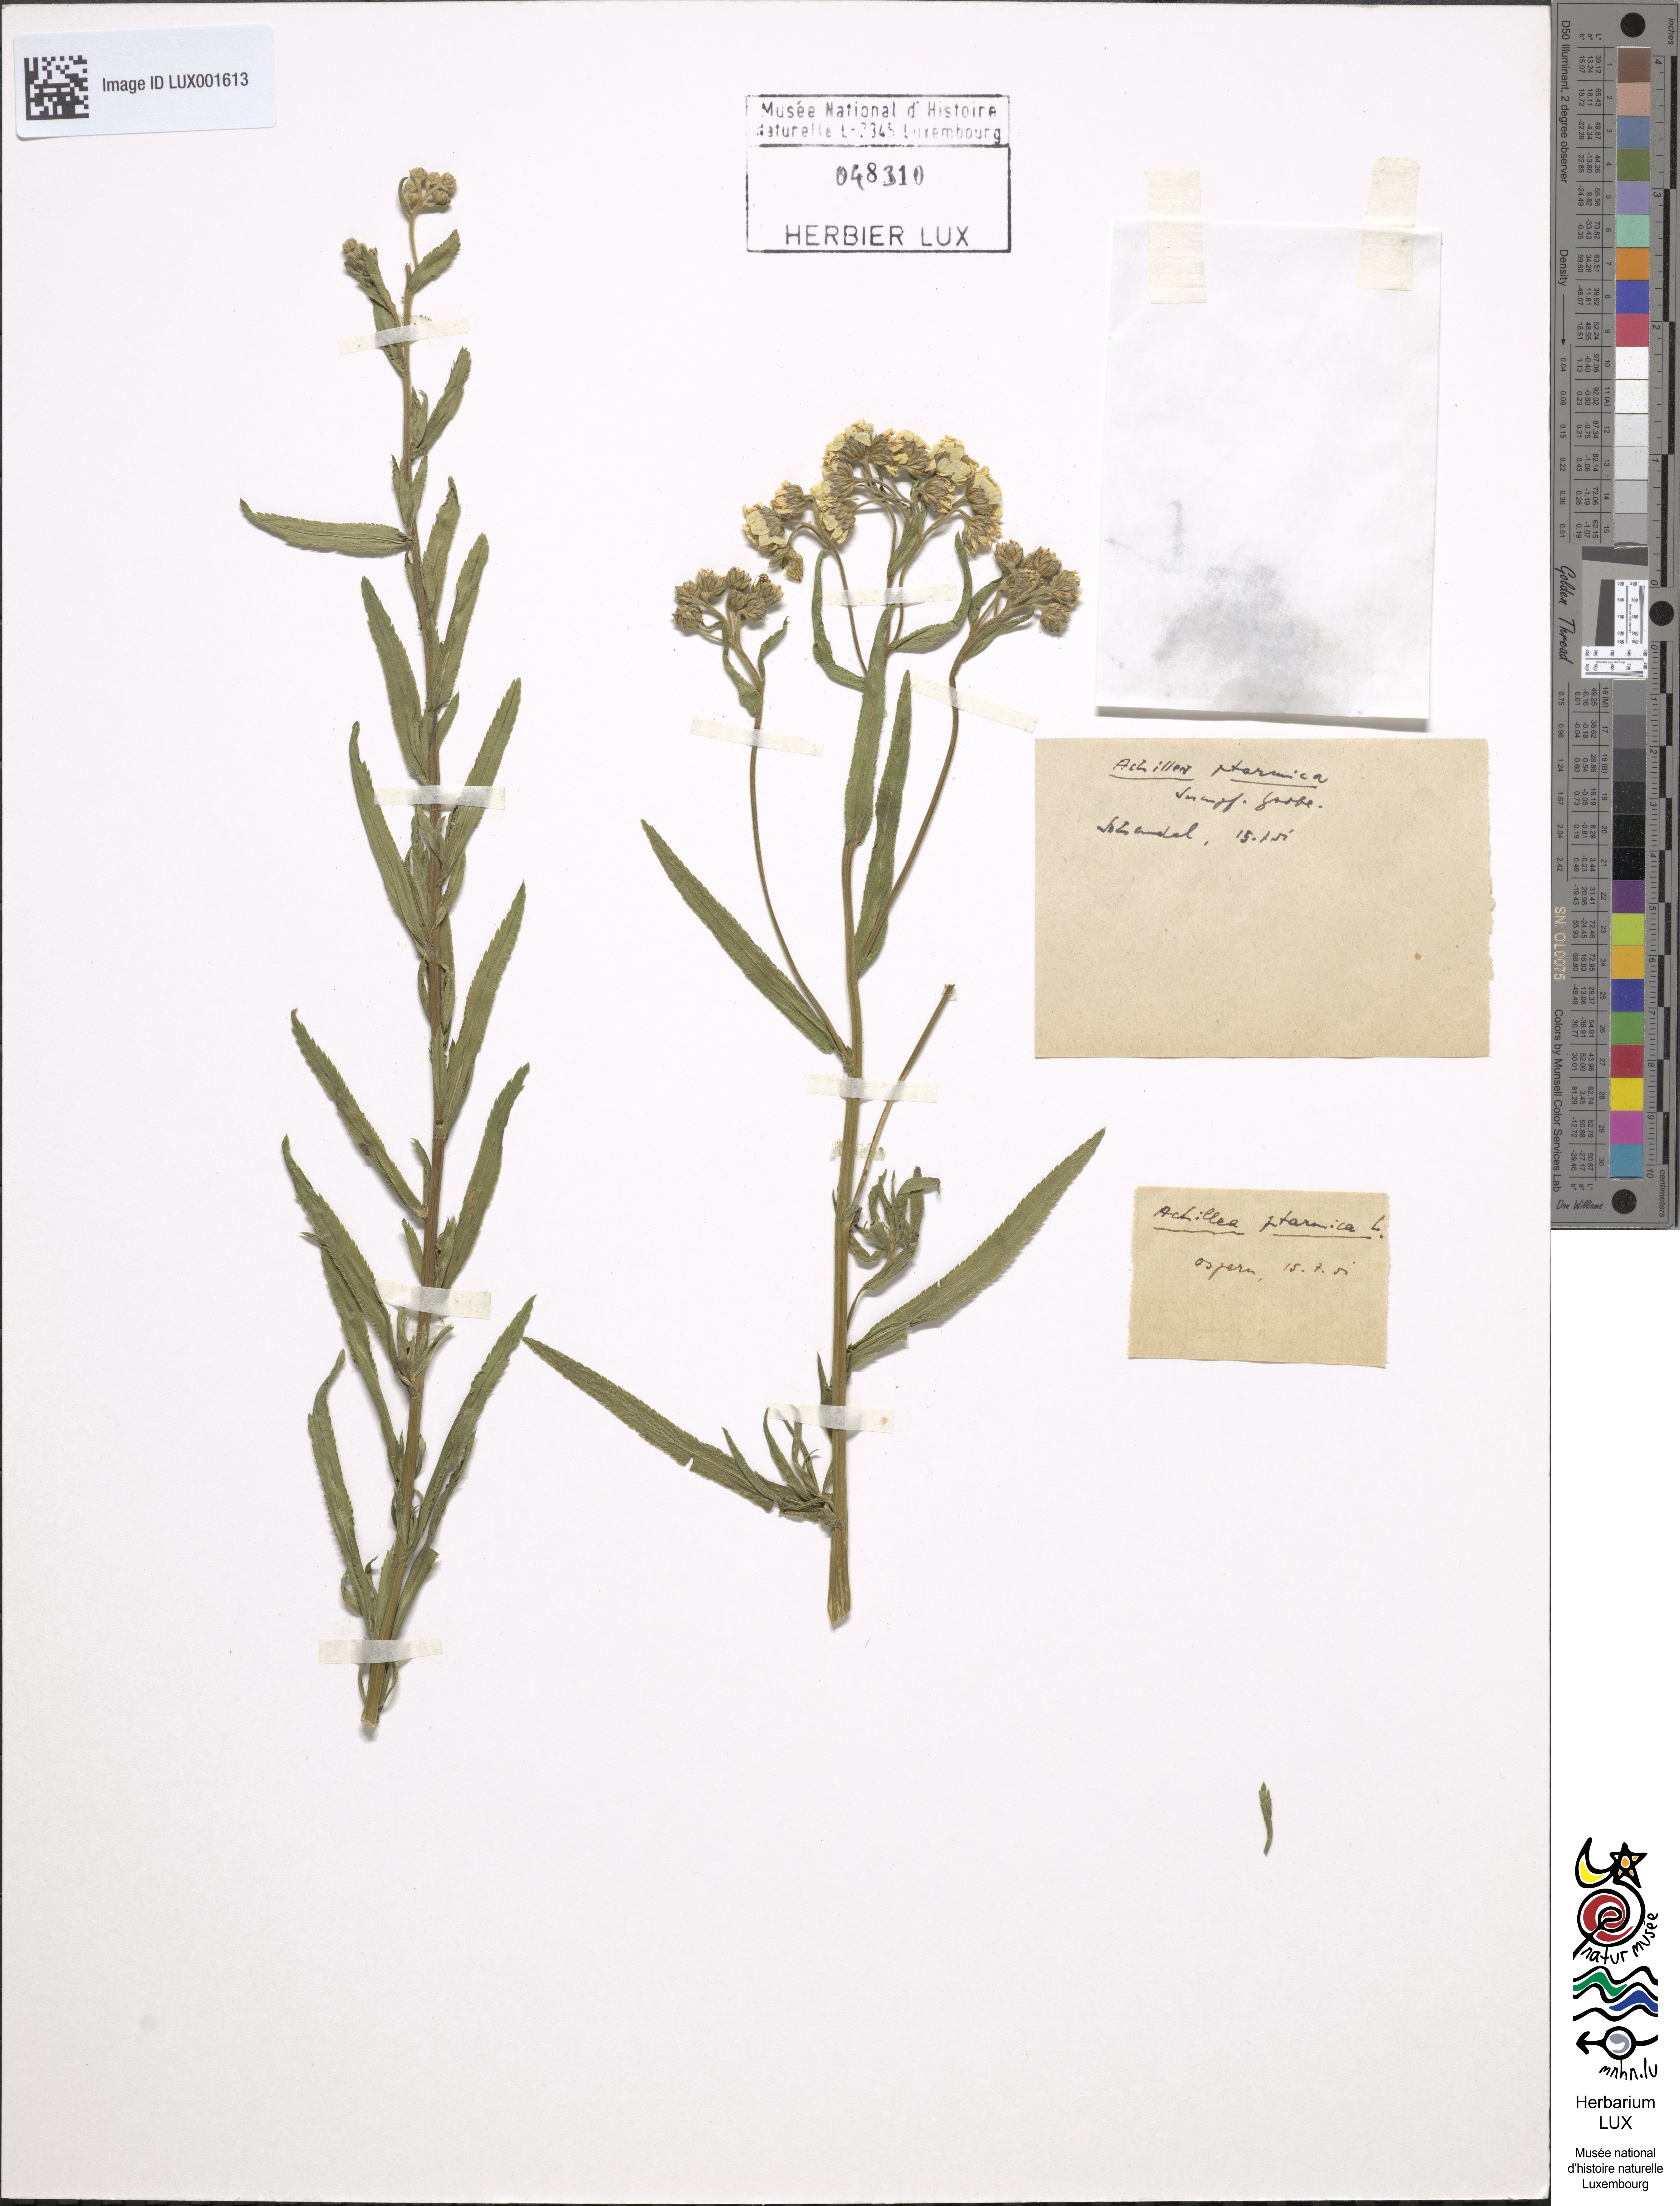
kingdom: Plantae
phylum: Tracheophyta
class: Magnoliopsida
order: Asterales
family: Asteraceae
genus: Achillea
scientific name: Achillea ptarmica
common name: Sneezeweed
